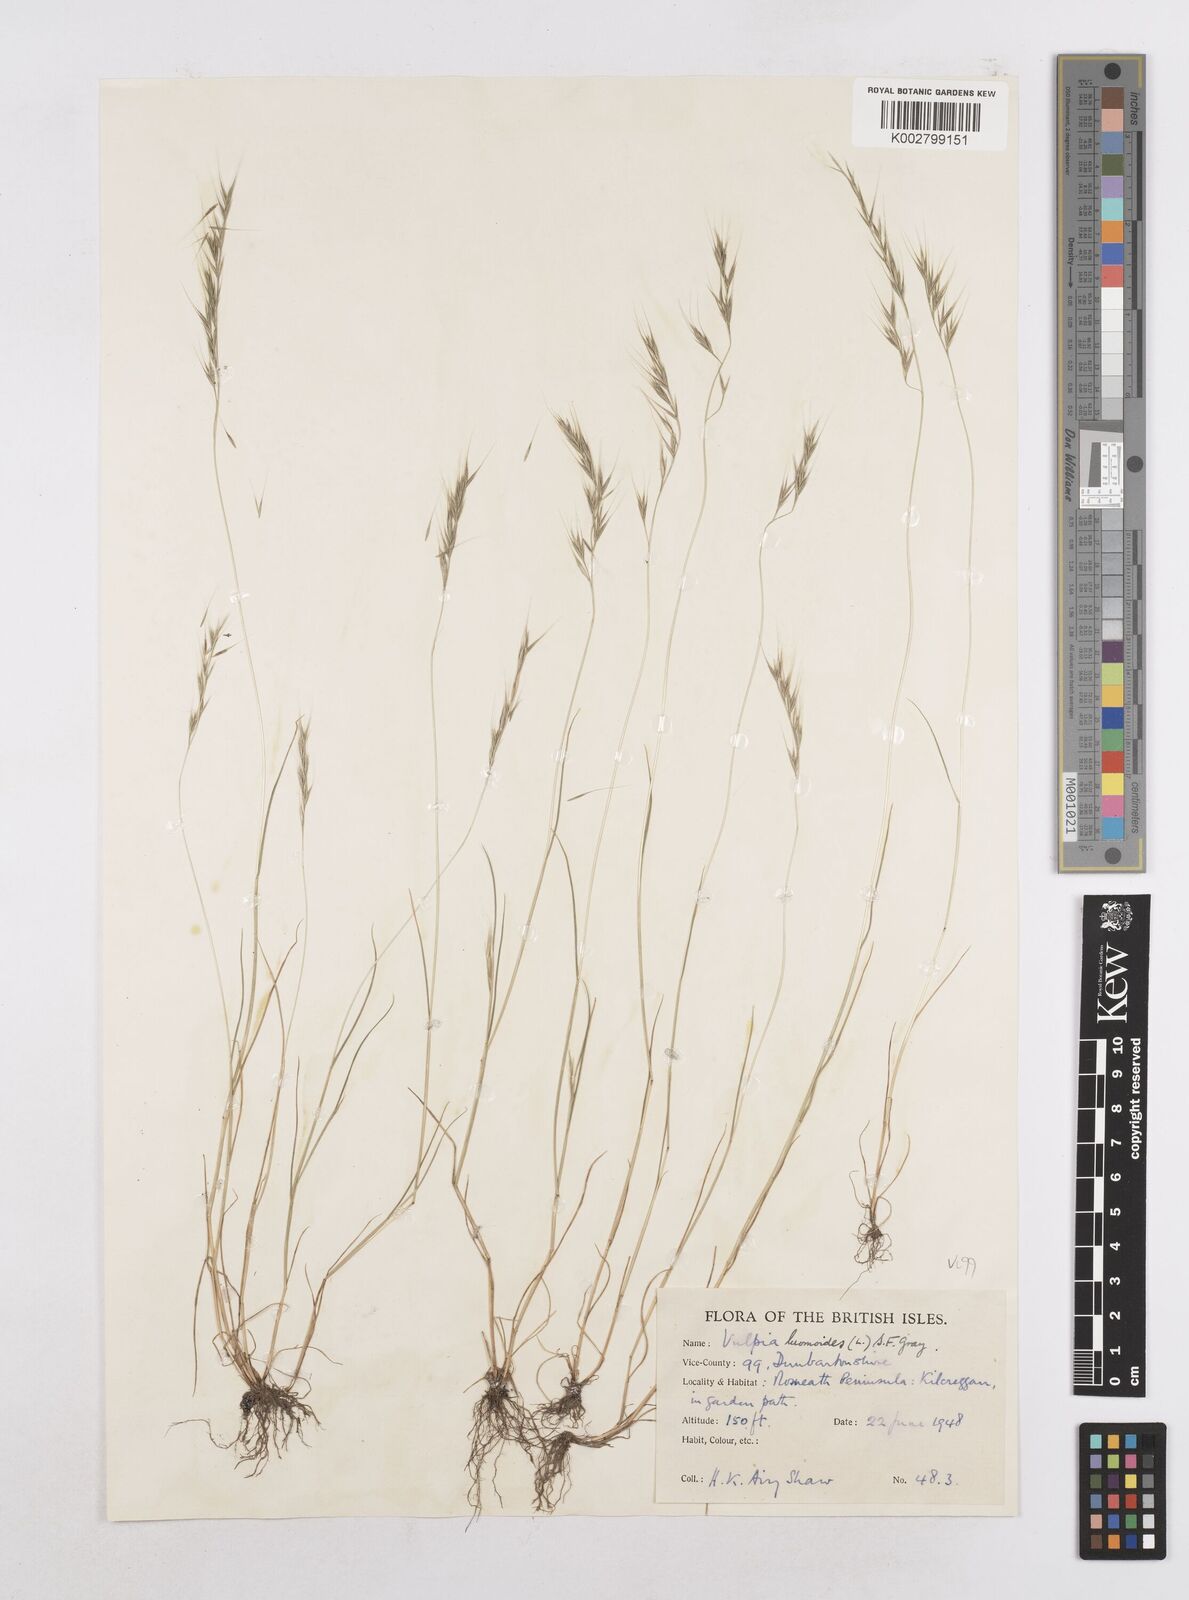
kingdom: Plantae
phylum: Tracheophyta
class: Liliopsida
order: Poales
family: Poaceae
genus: Festuca
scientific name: Festuca bromoides
